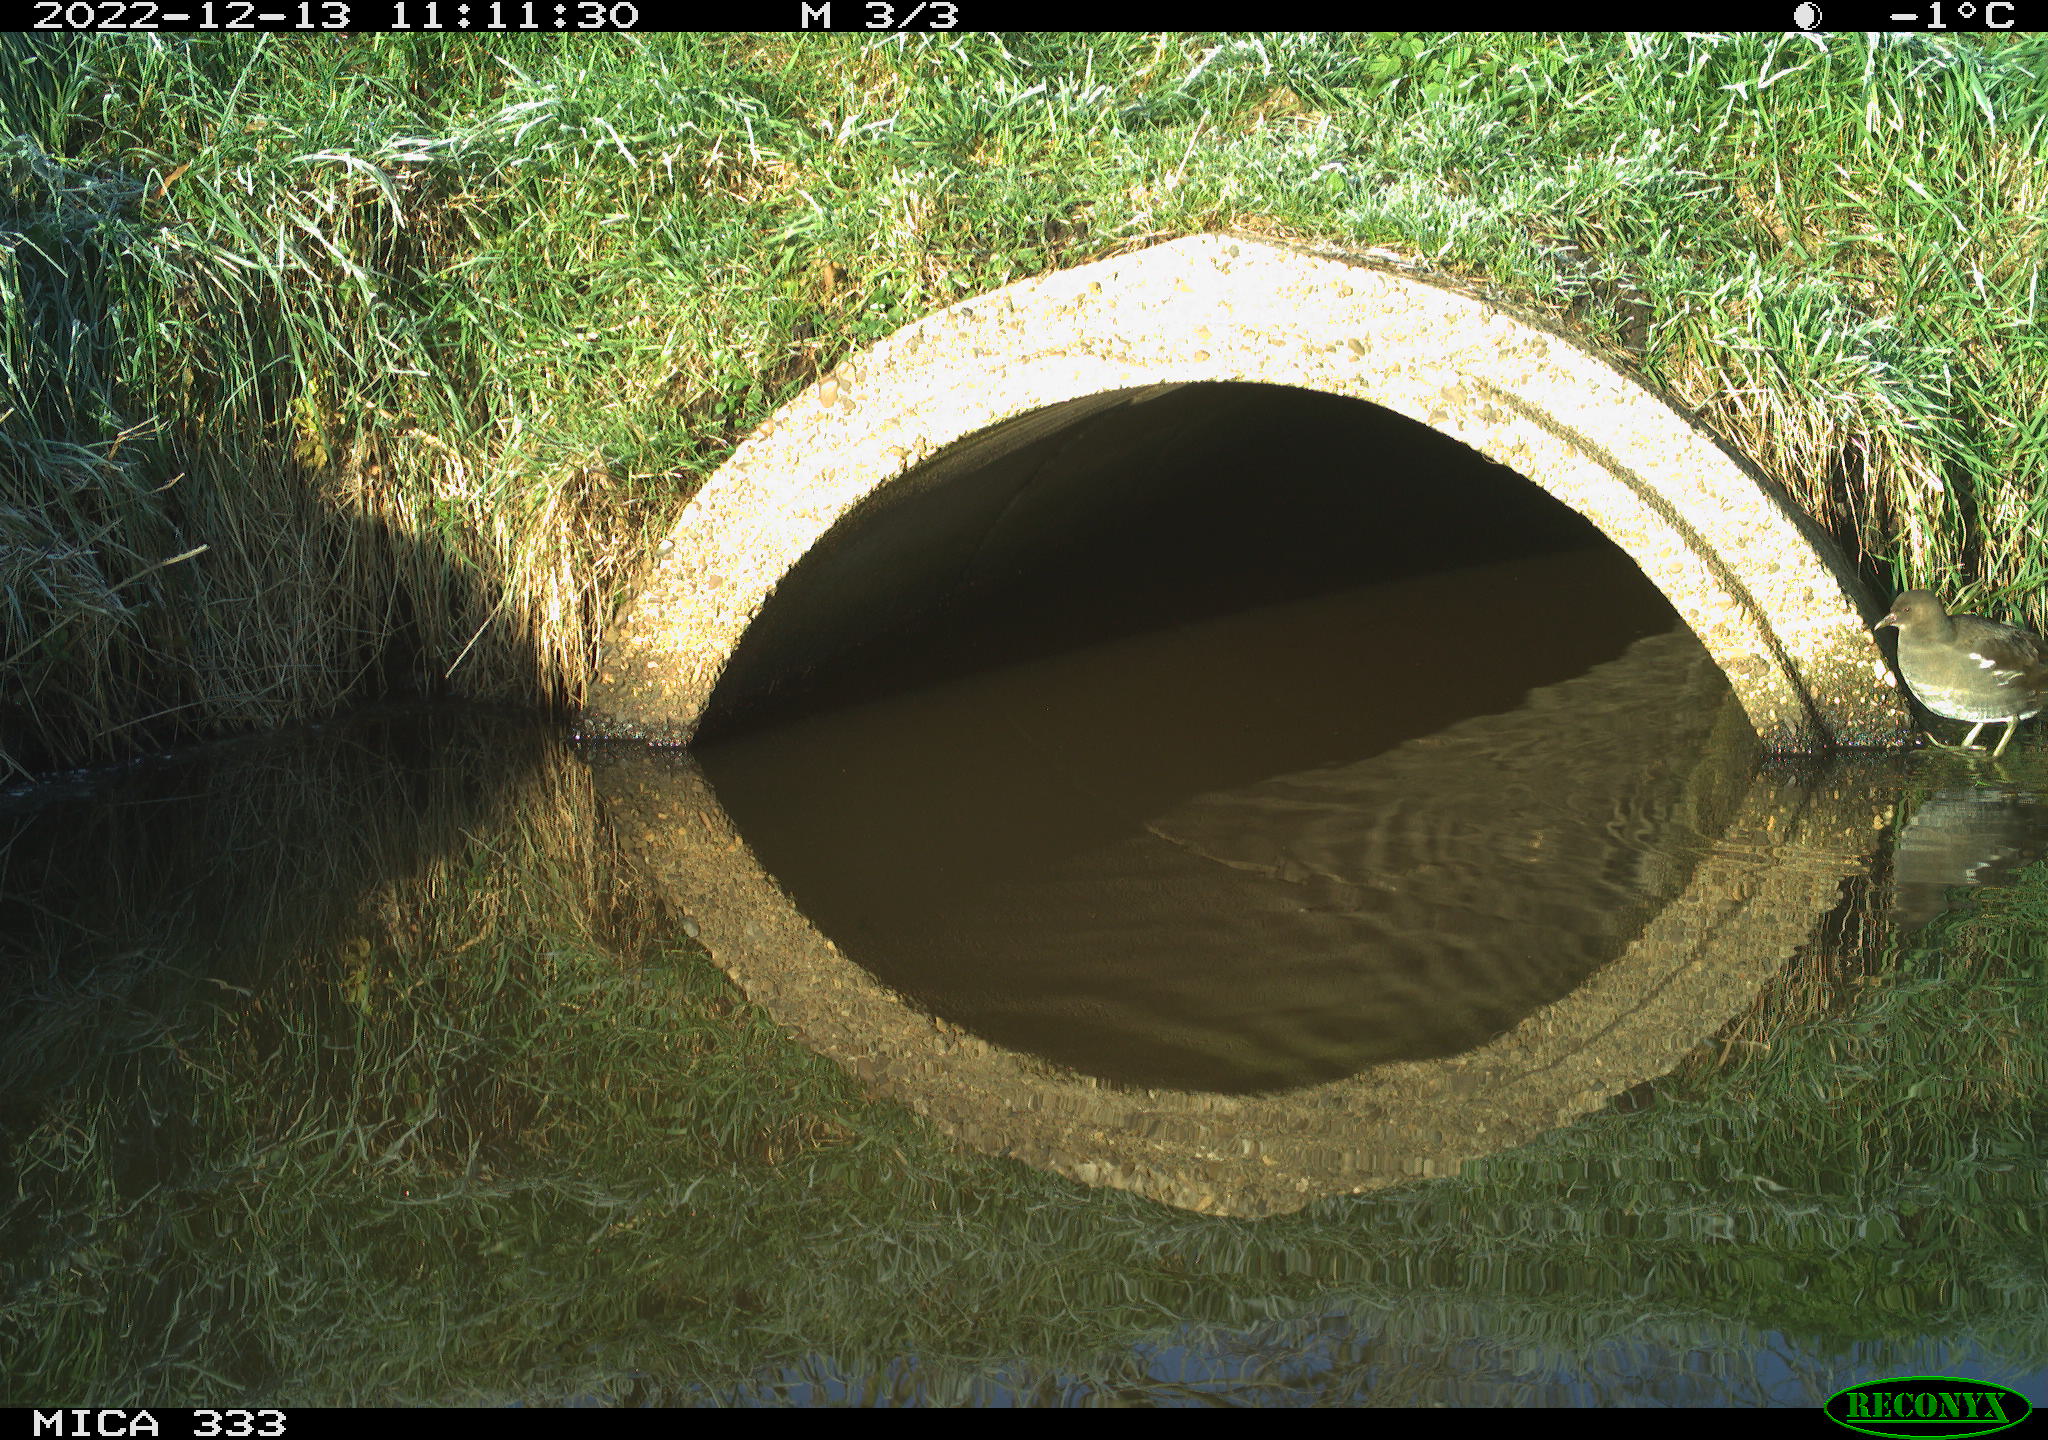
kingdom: Animalia
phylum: Chordata
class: Aves
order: Gruiformes
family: Rallidae
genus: Gallinula
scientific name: Gallinula chloropus
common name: Common moorhen
